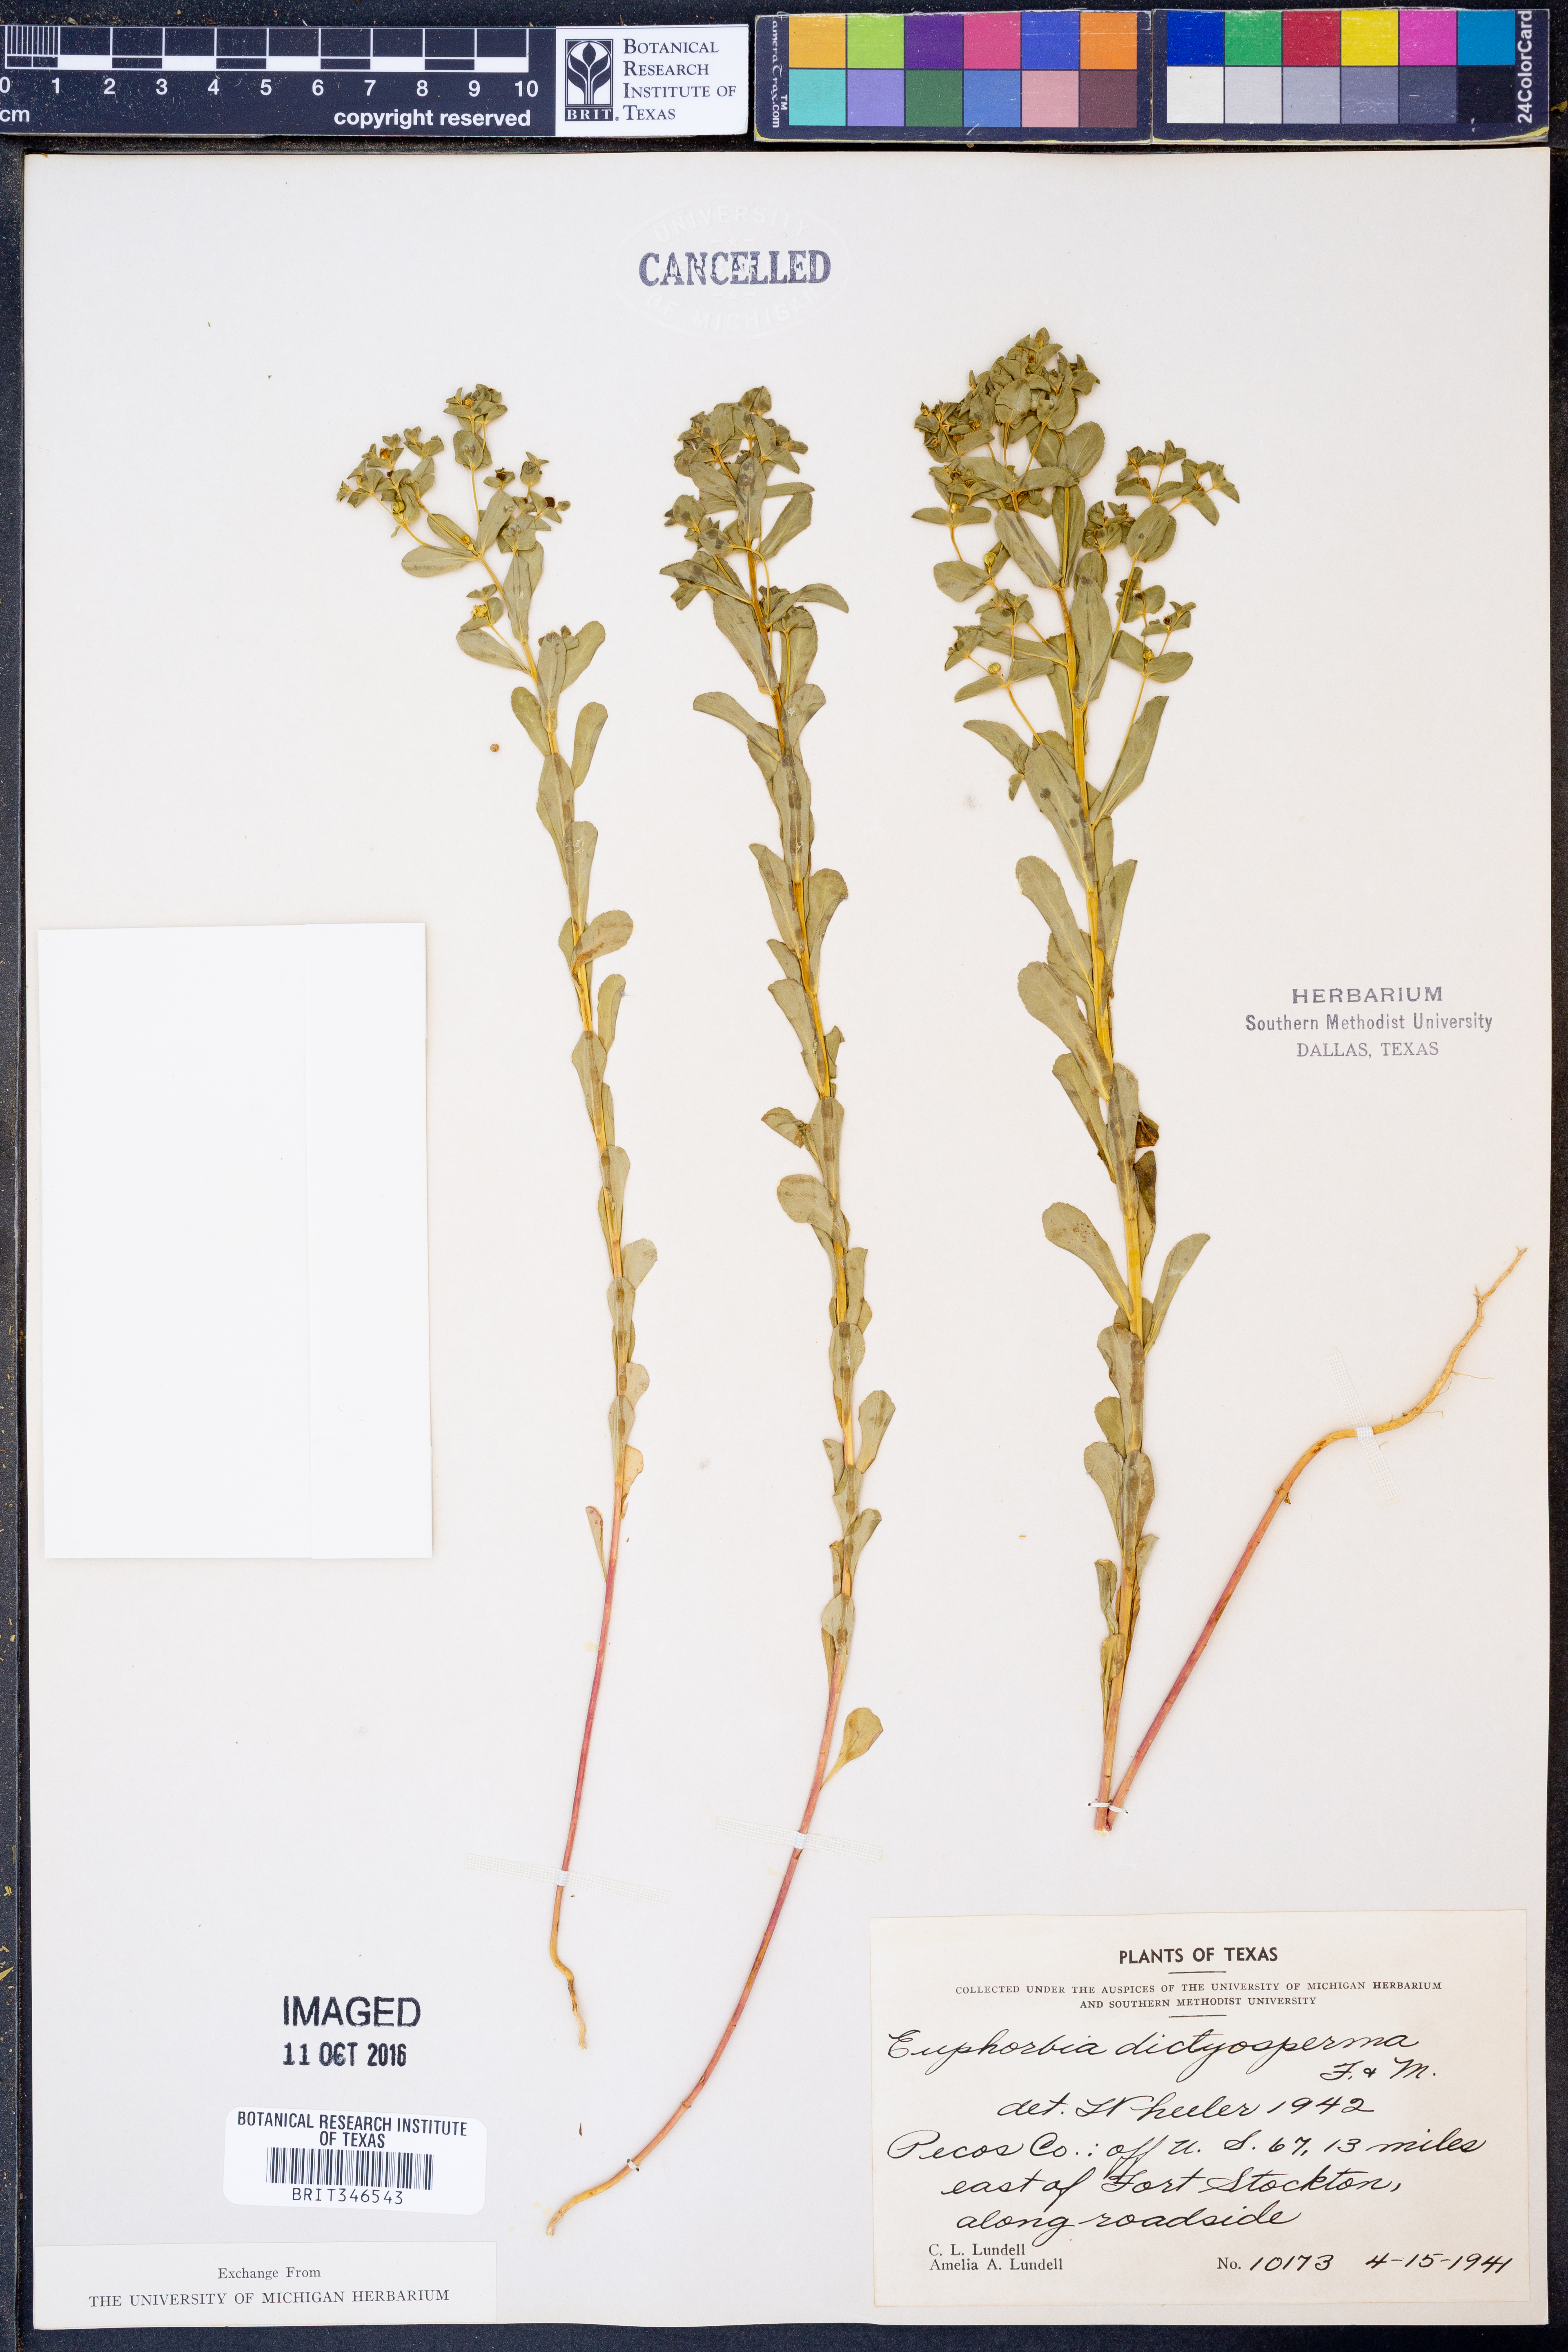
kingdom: Plantae
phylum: Tracheophyta
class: Magnoliopsida
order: Malpighiales
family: Euphorbiaceae
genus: Euphorbia
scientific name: Euphorbia spathulata
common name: Blunt spurge
